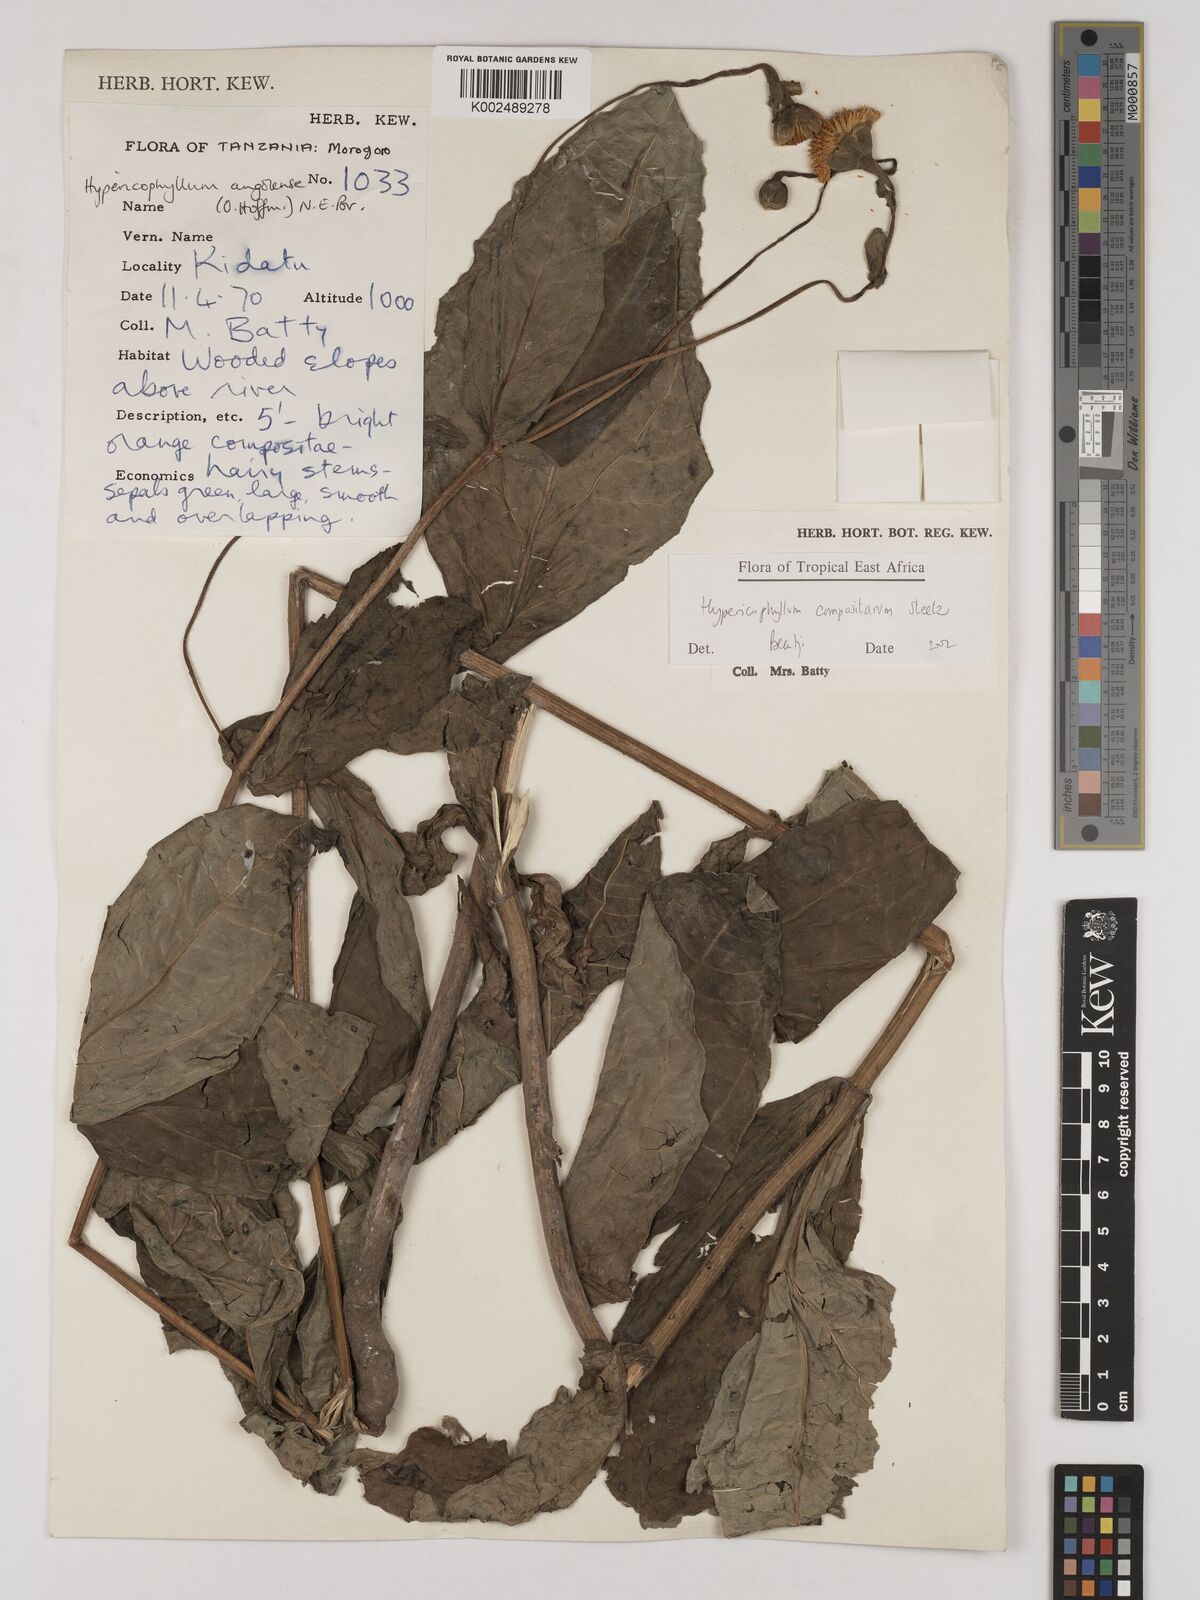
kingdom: Plantae
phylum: Tracheophyta
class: Magnoliopsida
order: Asterales
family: Asteraceae
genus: Hypericophyllum
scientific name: Hypericophyllum compositarum
